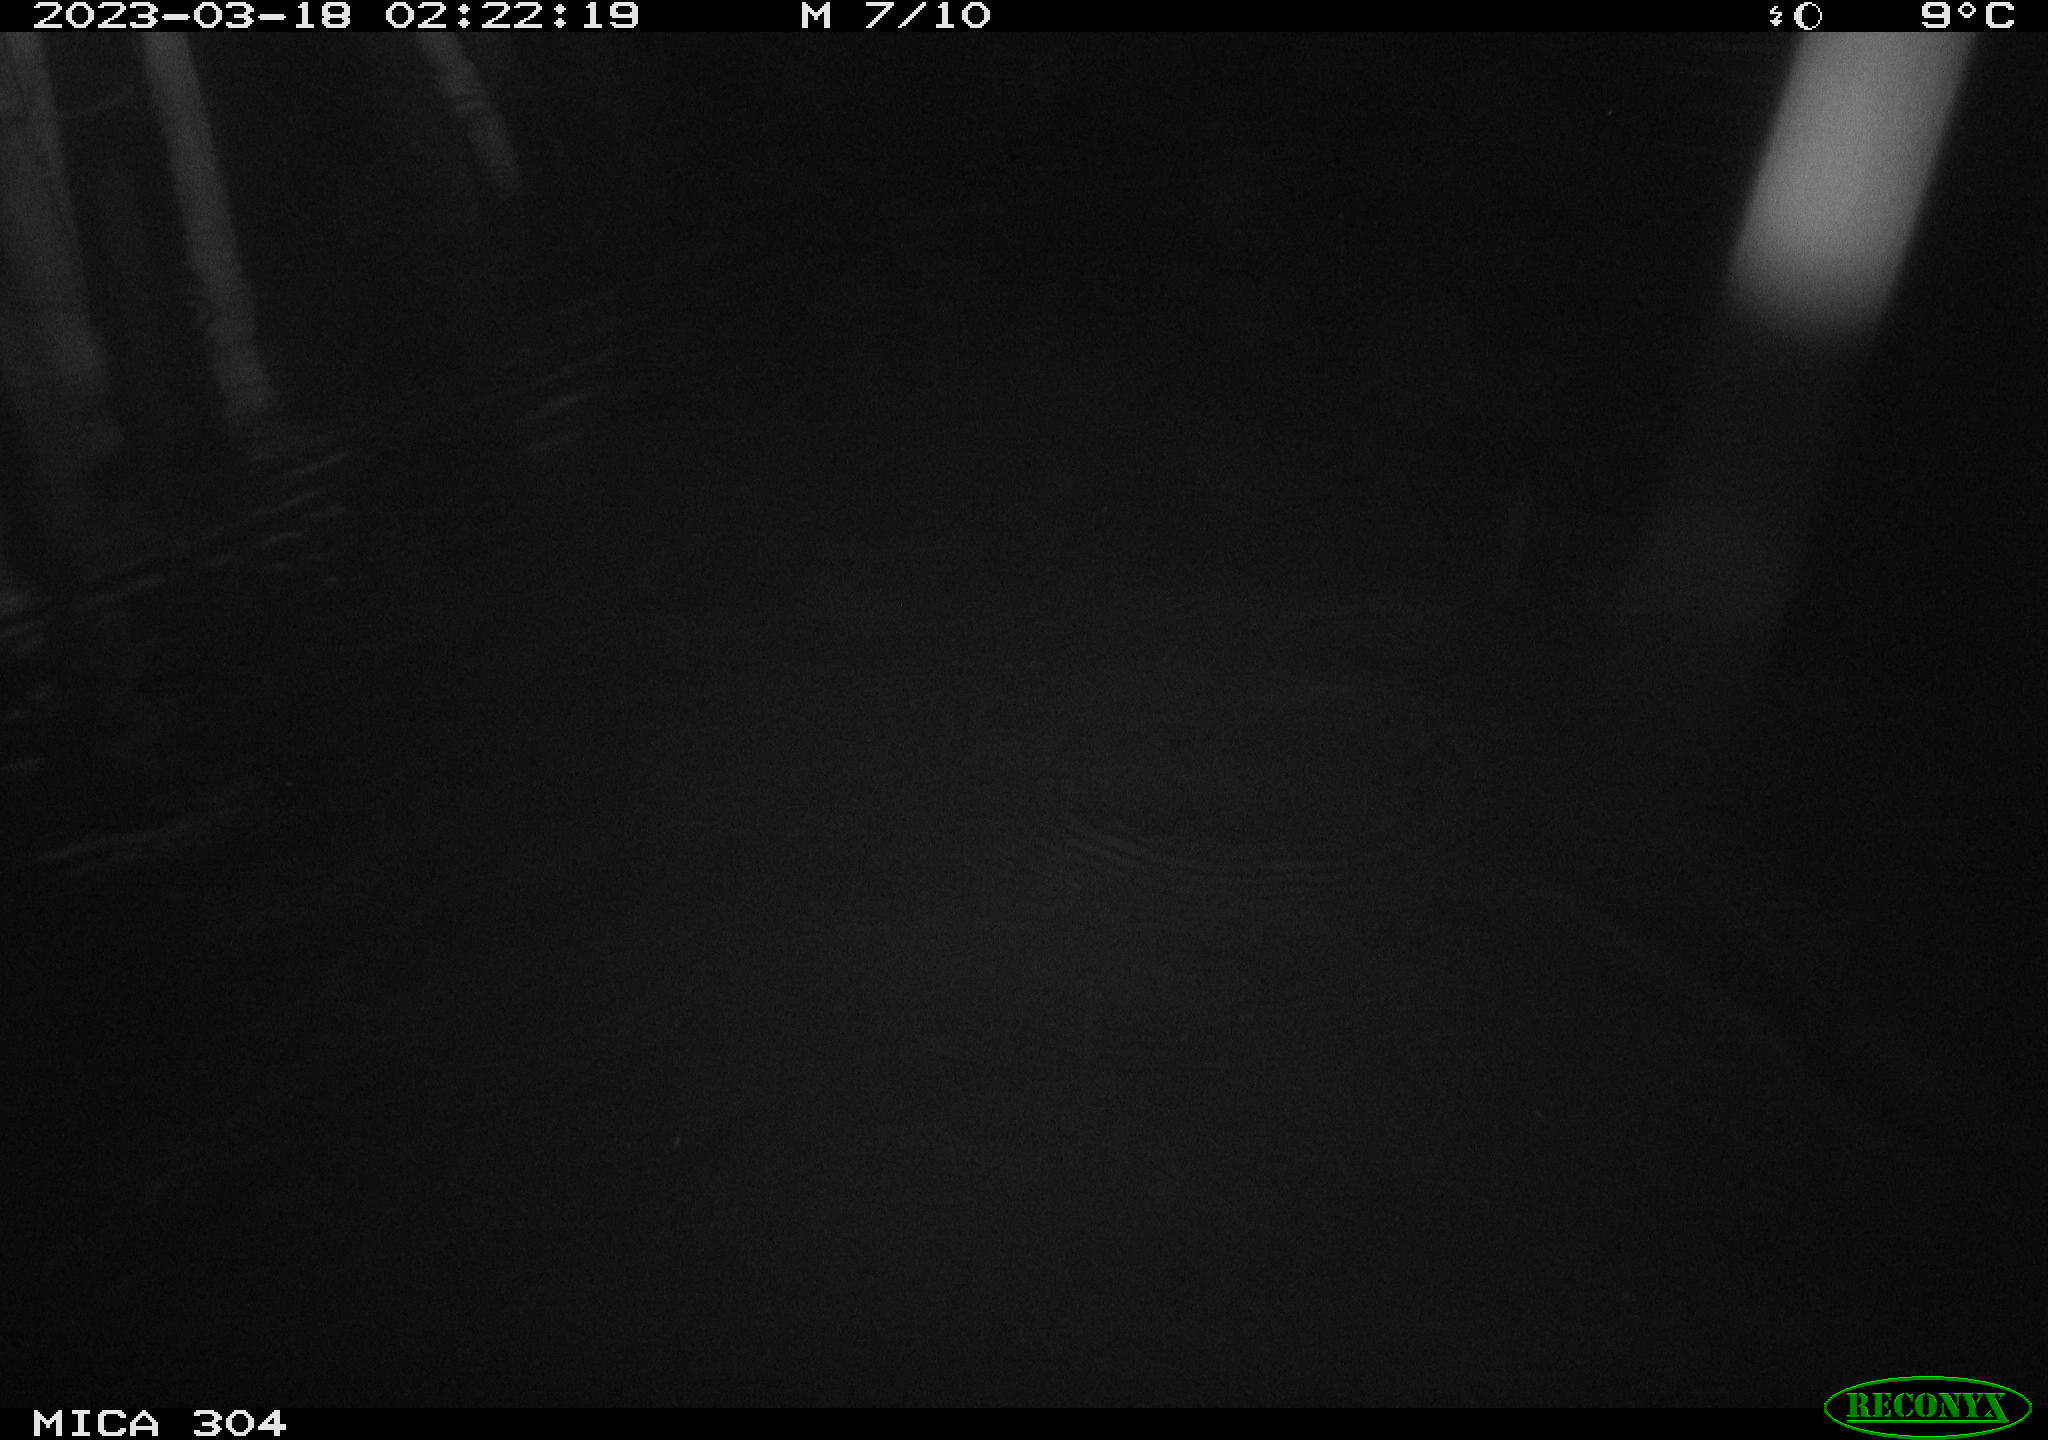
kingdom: Animalia
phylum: Chordata
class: Aves
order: Anseriformes
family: Anatidae
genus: Anas
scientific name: Anas
